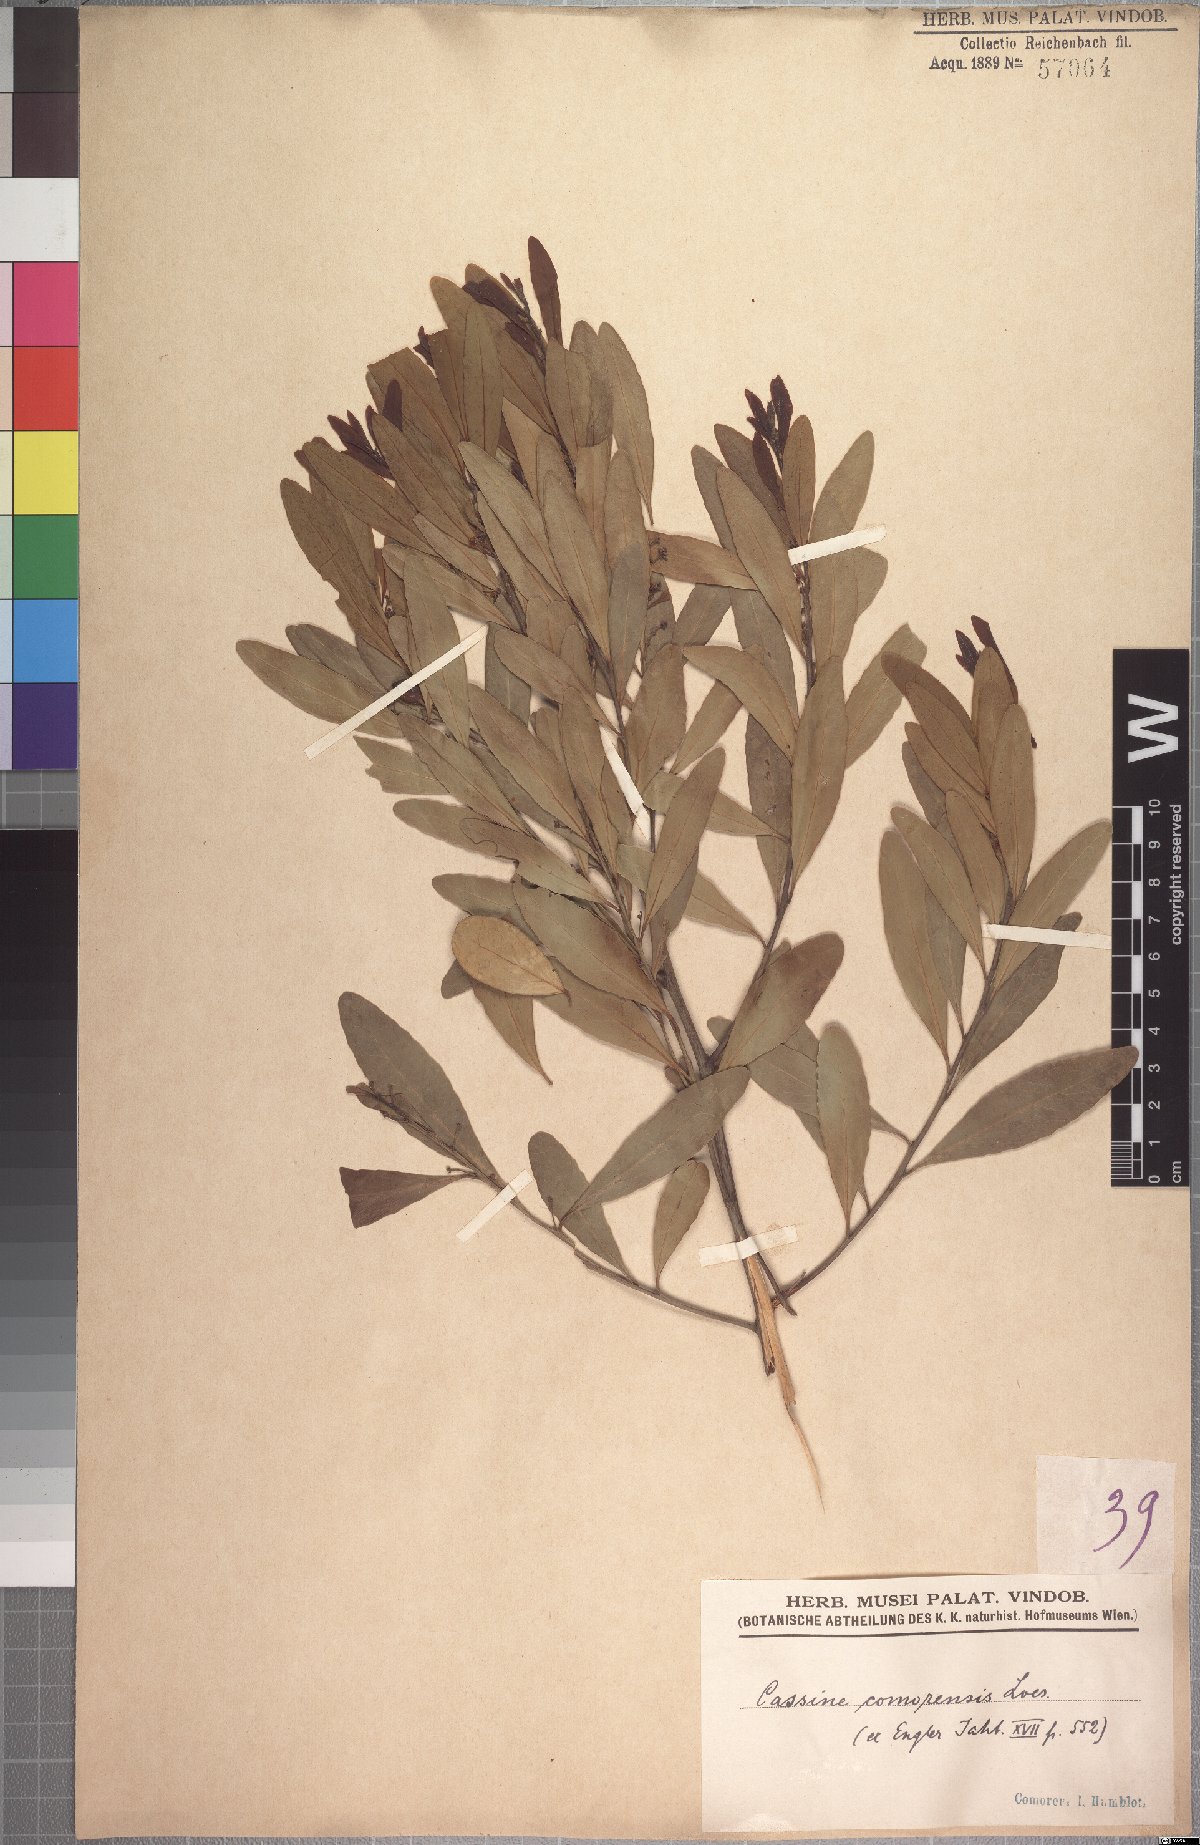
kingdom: Plantae
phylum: Tracheophyta
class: Magnoliopsida
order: Celastrales
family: Celastraceae
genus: Mystroxylon
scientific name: Mystroxylon aethiopicum
